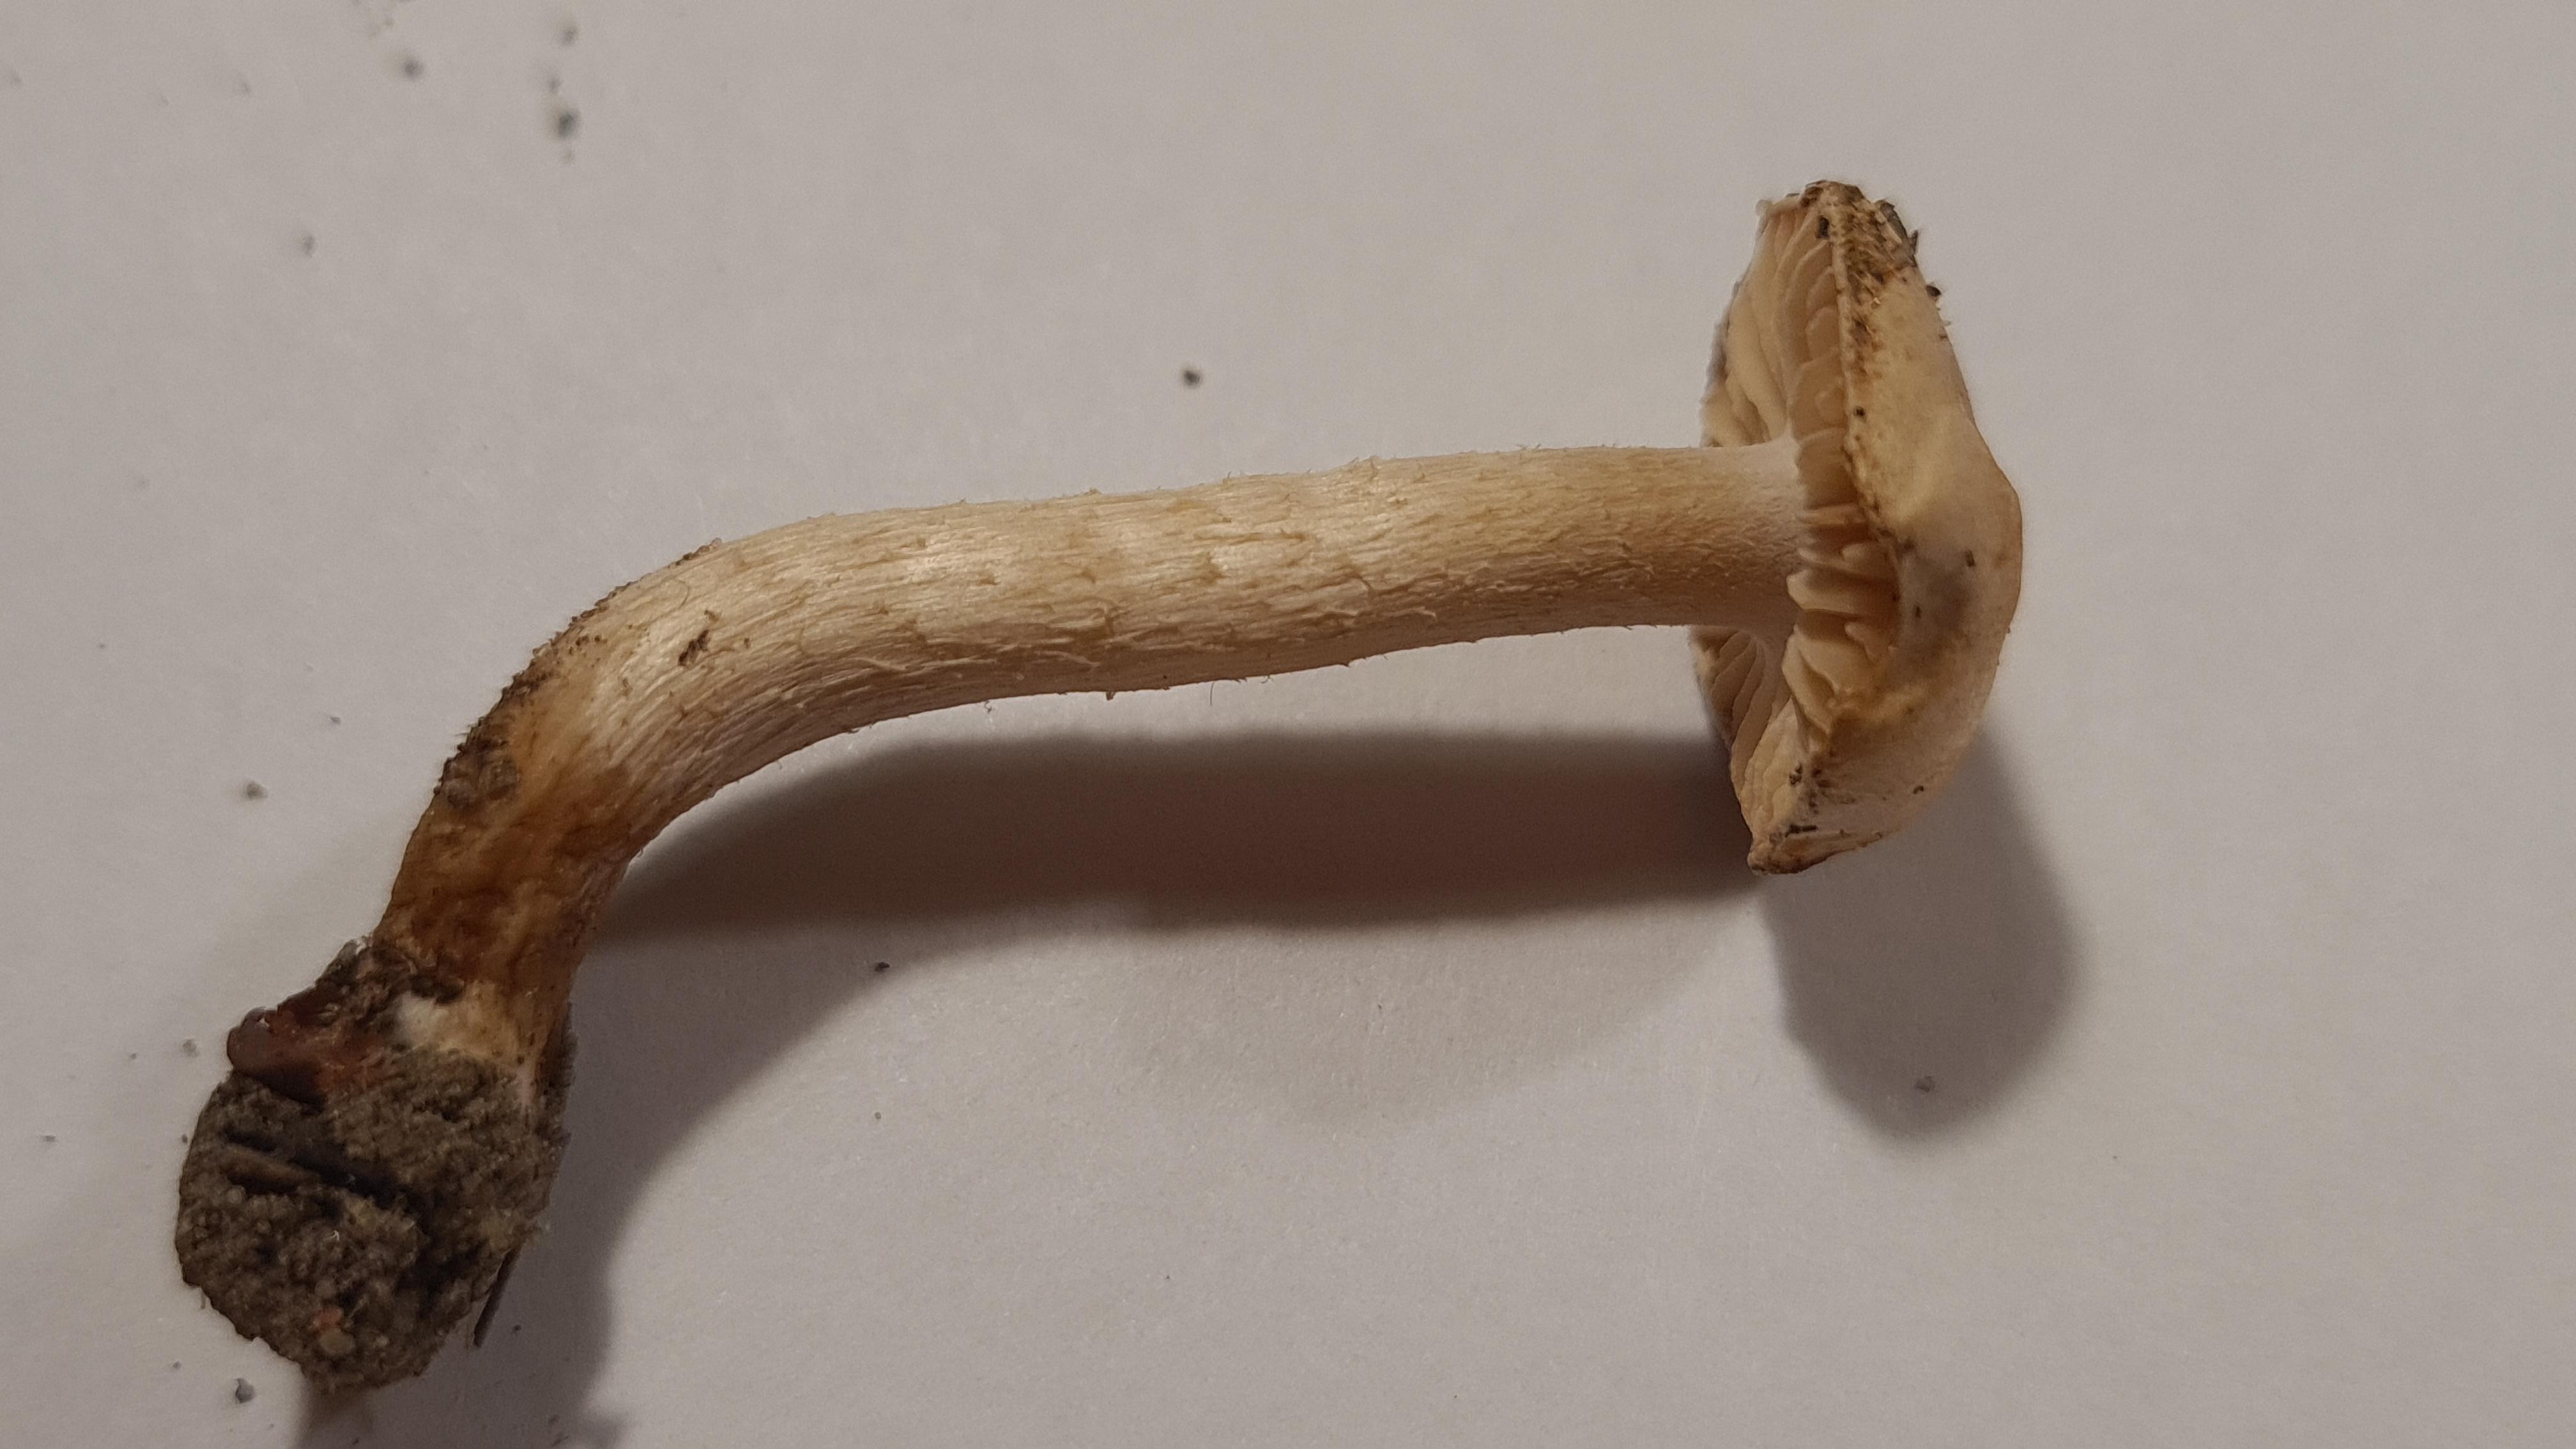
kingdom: Fungi
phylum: Basidiomycota
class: Agaricomycetes
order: Agaricales
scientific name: Agaricales
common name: champignonordenen
